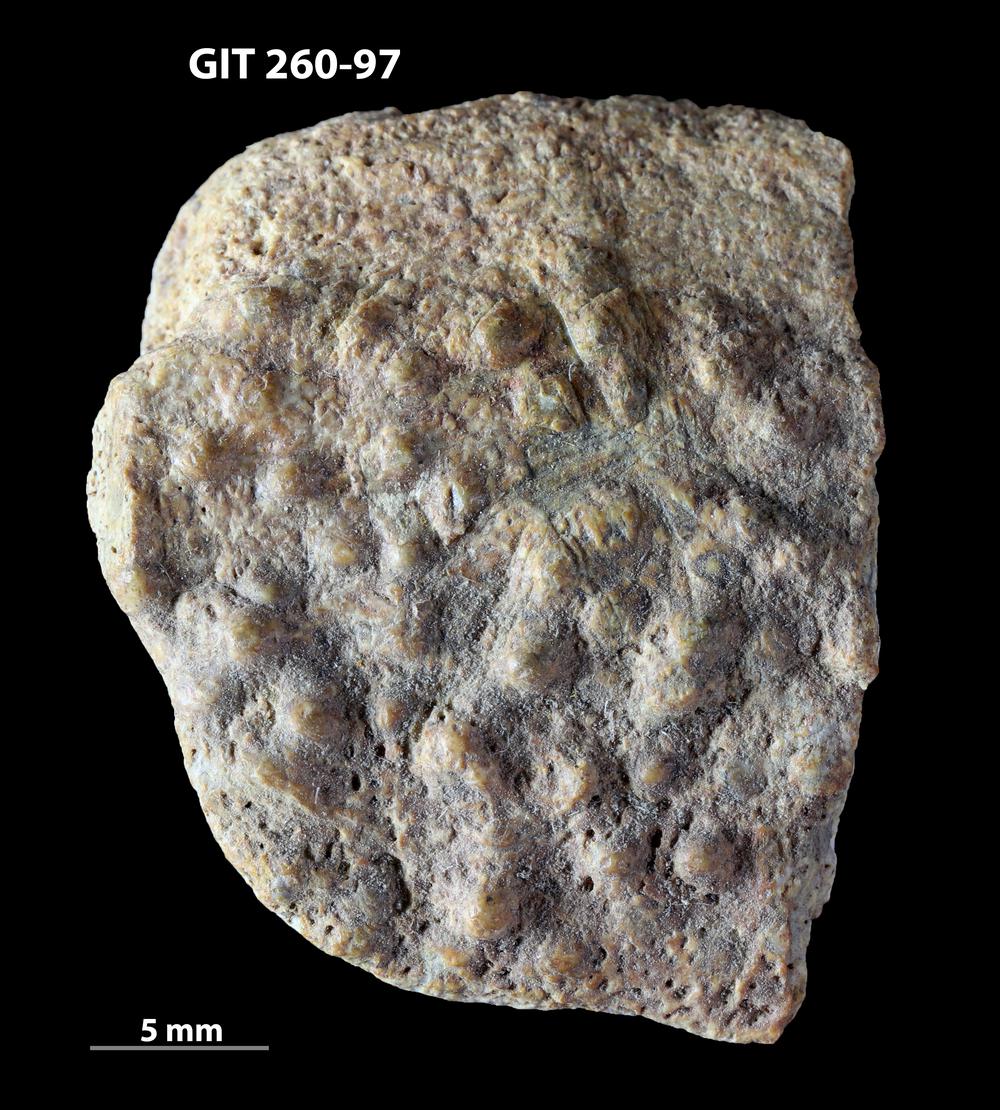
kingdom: Animalia
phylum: Chordata
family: Homostiidae
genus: Homostius
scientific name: Homostius
